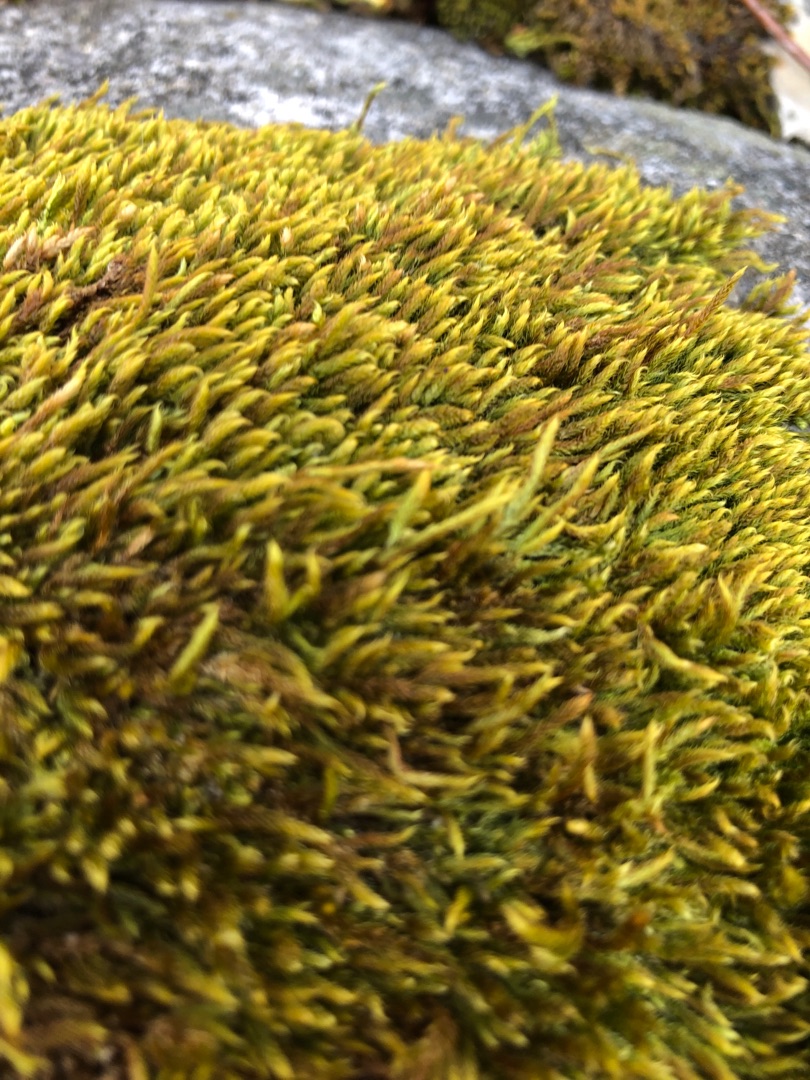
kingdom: Plantae
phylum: Bryophyta
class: Bryopsida
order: Hypnales
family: Hypnaceae
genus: Hypnum
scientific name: Hypnum cupressiforme
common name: Almindelig cypresmos
